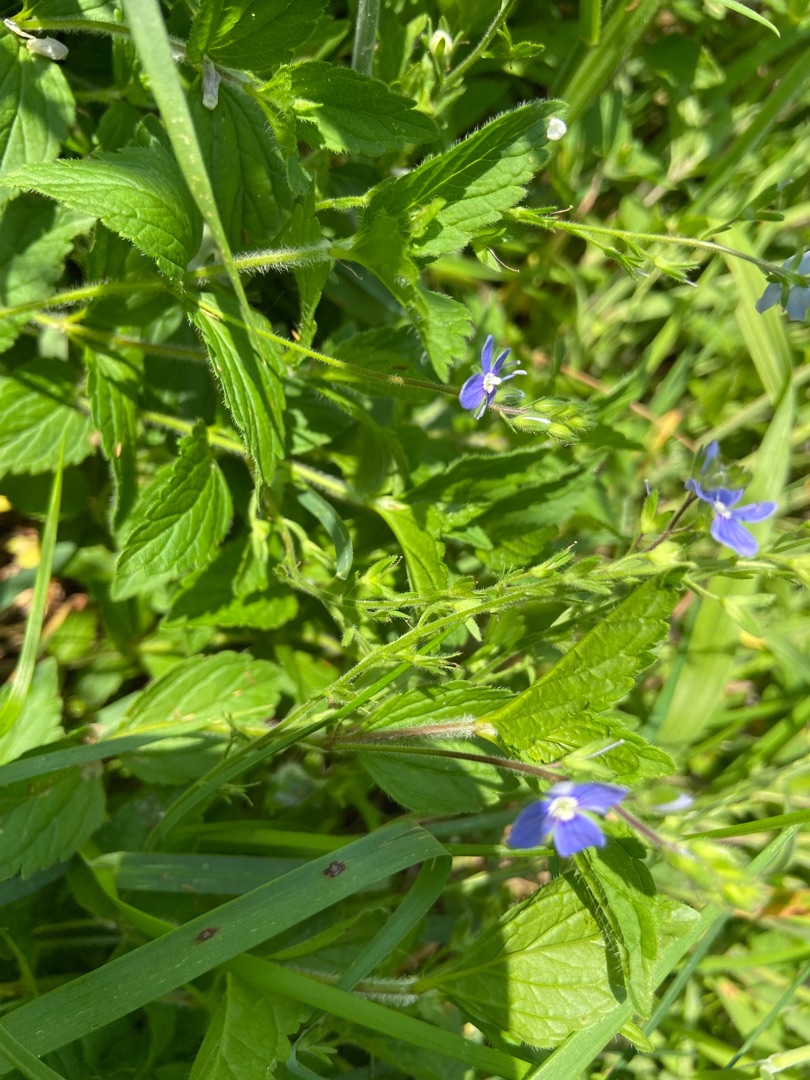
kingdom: Plantae
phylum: Tracheophyta
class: Magnoliopsida
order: Lamiales
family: Plantaginaceae
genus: Veronica
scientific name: Veronica chamaedrys
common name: Tveskægget ærenpris
